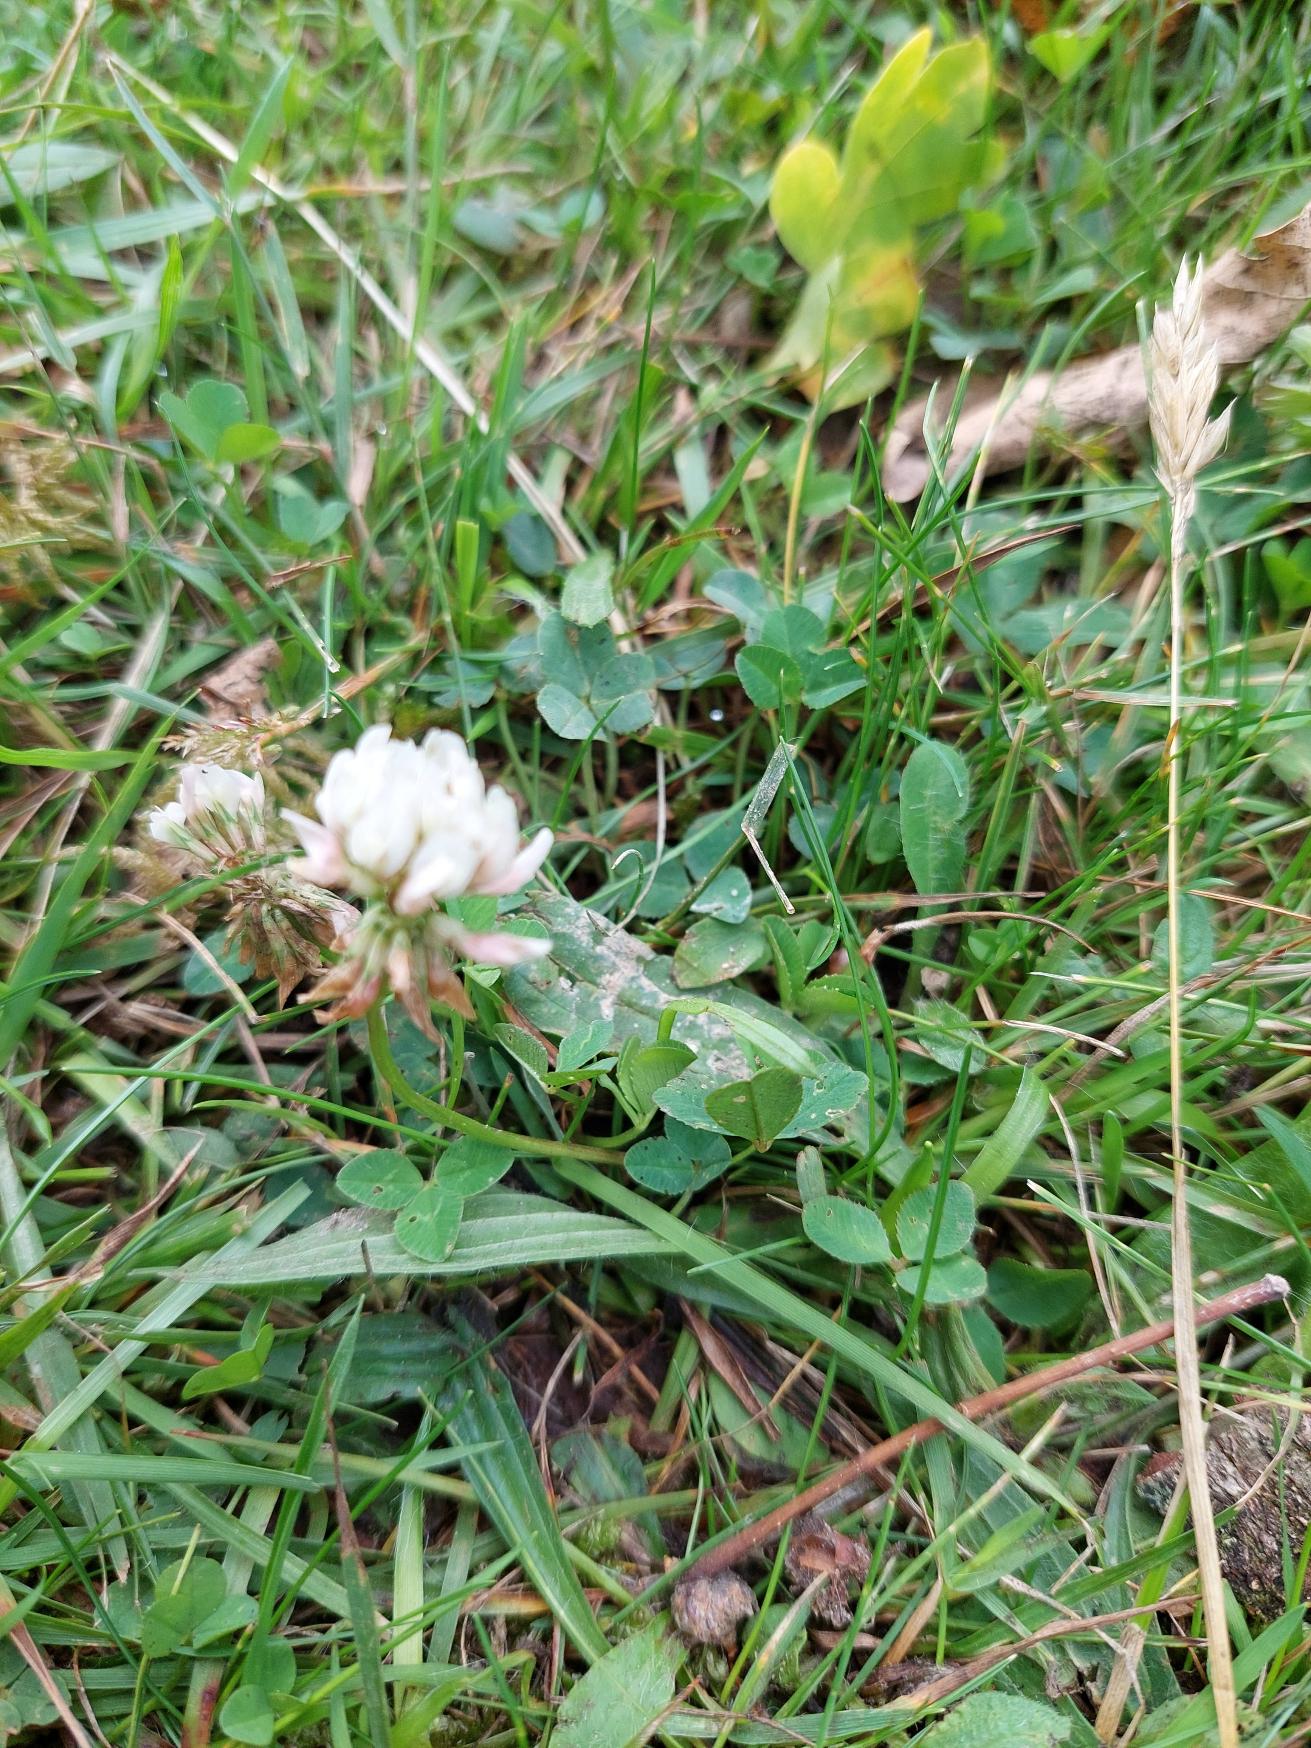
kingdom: Plantae
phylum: Tracheophyta
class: Magnoliopsida
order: Fabales
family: Fabaceae
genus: Trifolium
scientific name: Trifolium repens
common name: Hvid-kløver
